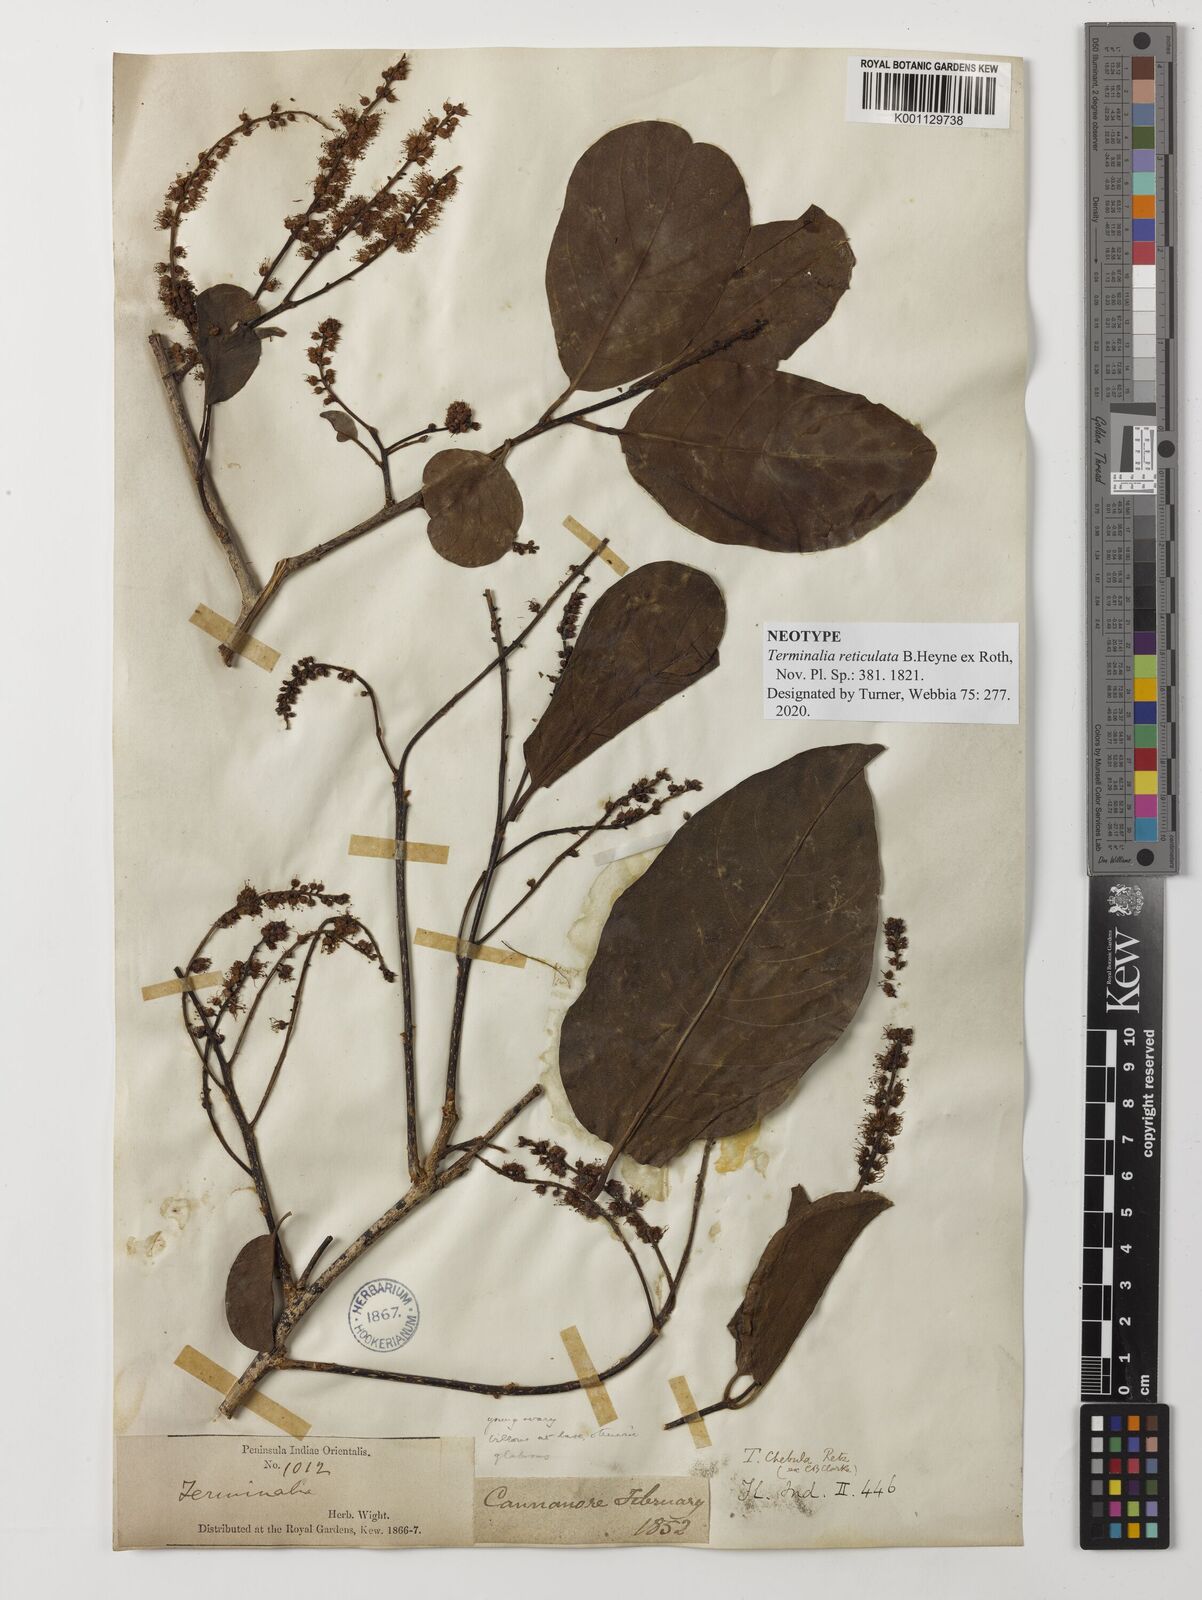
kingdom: Plantae
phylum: Tracheophyta
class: Magnoliopsida
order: Myrtales
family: Combretaceae
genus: Terminalia
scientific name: Terminalia chebula
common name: Myrobalan
